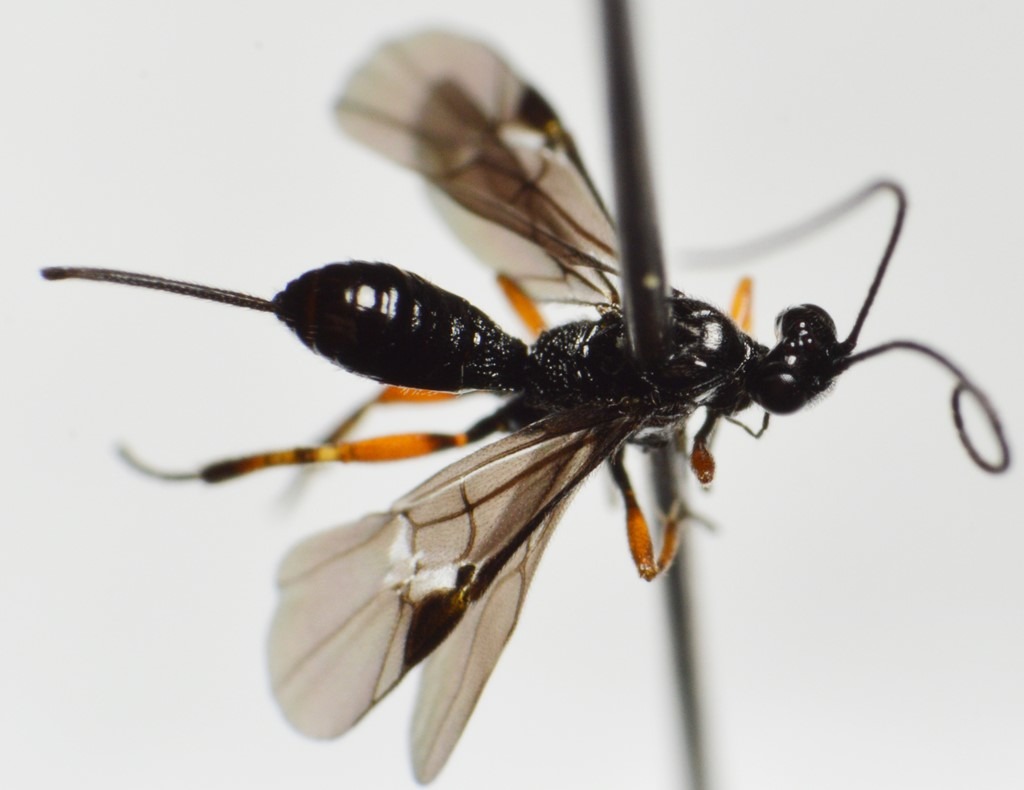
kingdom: Animalia
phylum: Arthropoda
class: Insecta
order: Hymenoptera
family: Braconidae
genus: Bassus
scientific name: Bassus mediator
